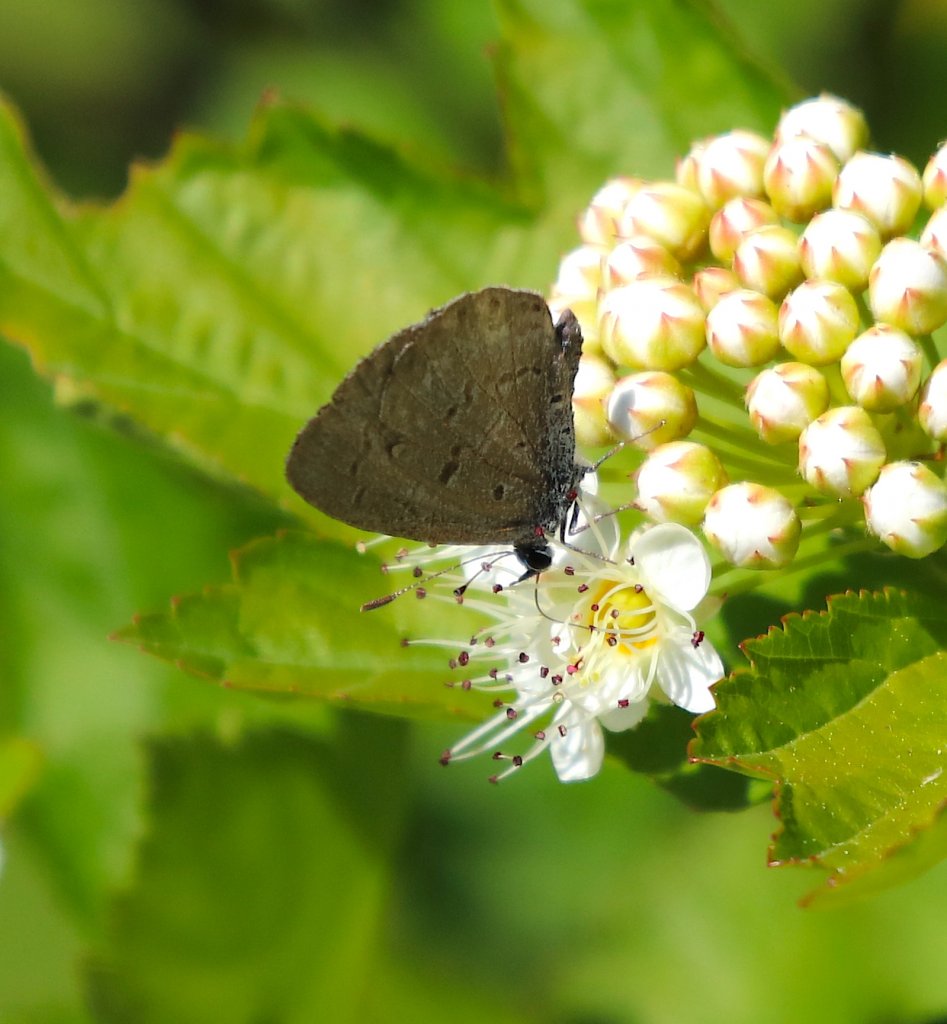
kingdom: Animalia
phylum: Arthropoda
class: Insecta
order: Lepidoptera
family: Lycaenidae
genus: Celastrina
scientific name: Celastrina ladon
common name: Spring Azure
